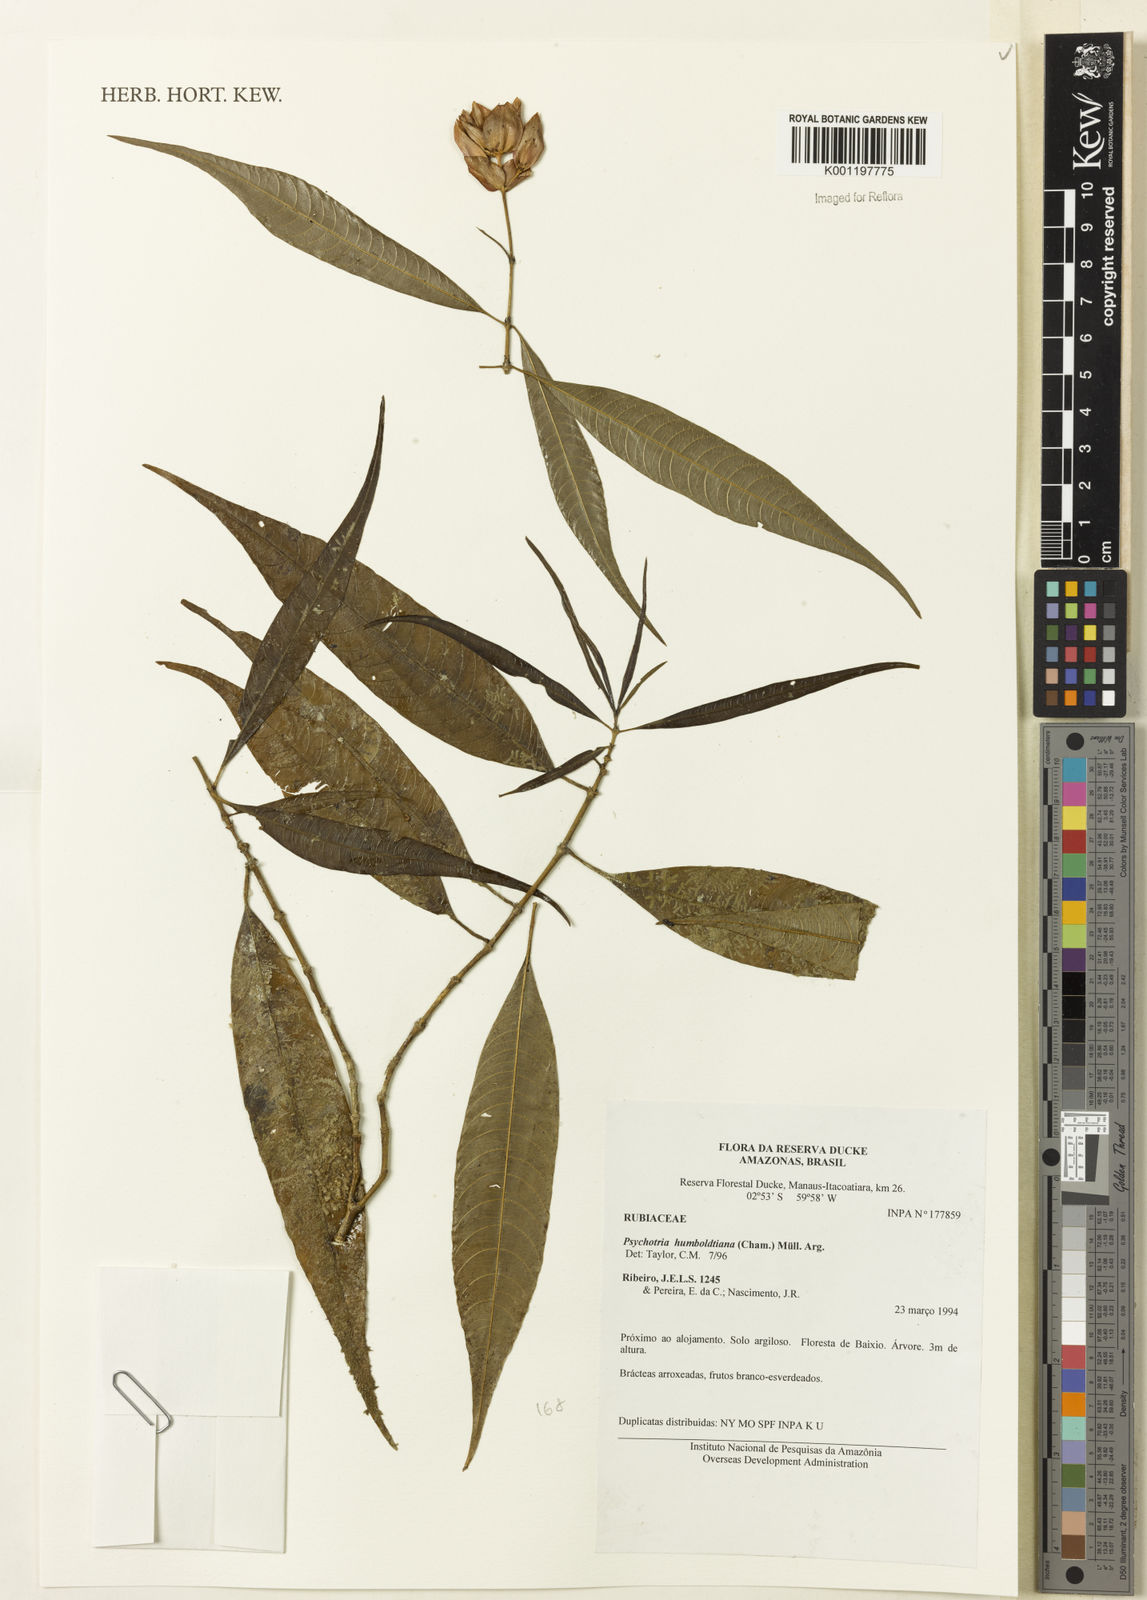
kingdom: Plantae
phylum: Tracheophyta
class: Magnoliopsida
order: Gentianales
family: Rubiaceae
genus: Psychotria
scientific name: Psychotria
